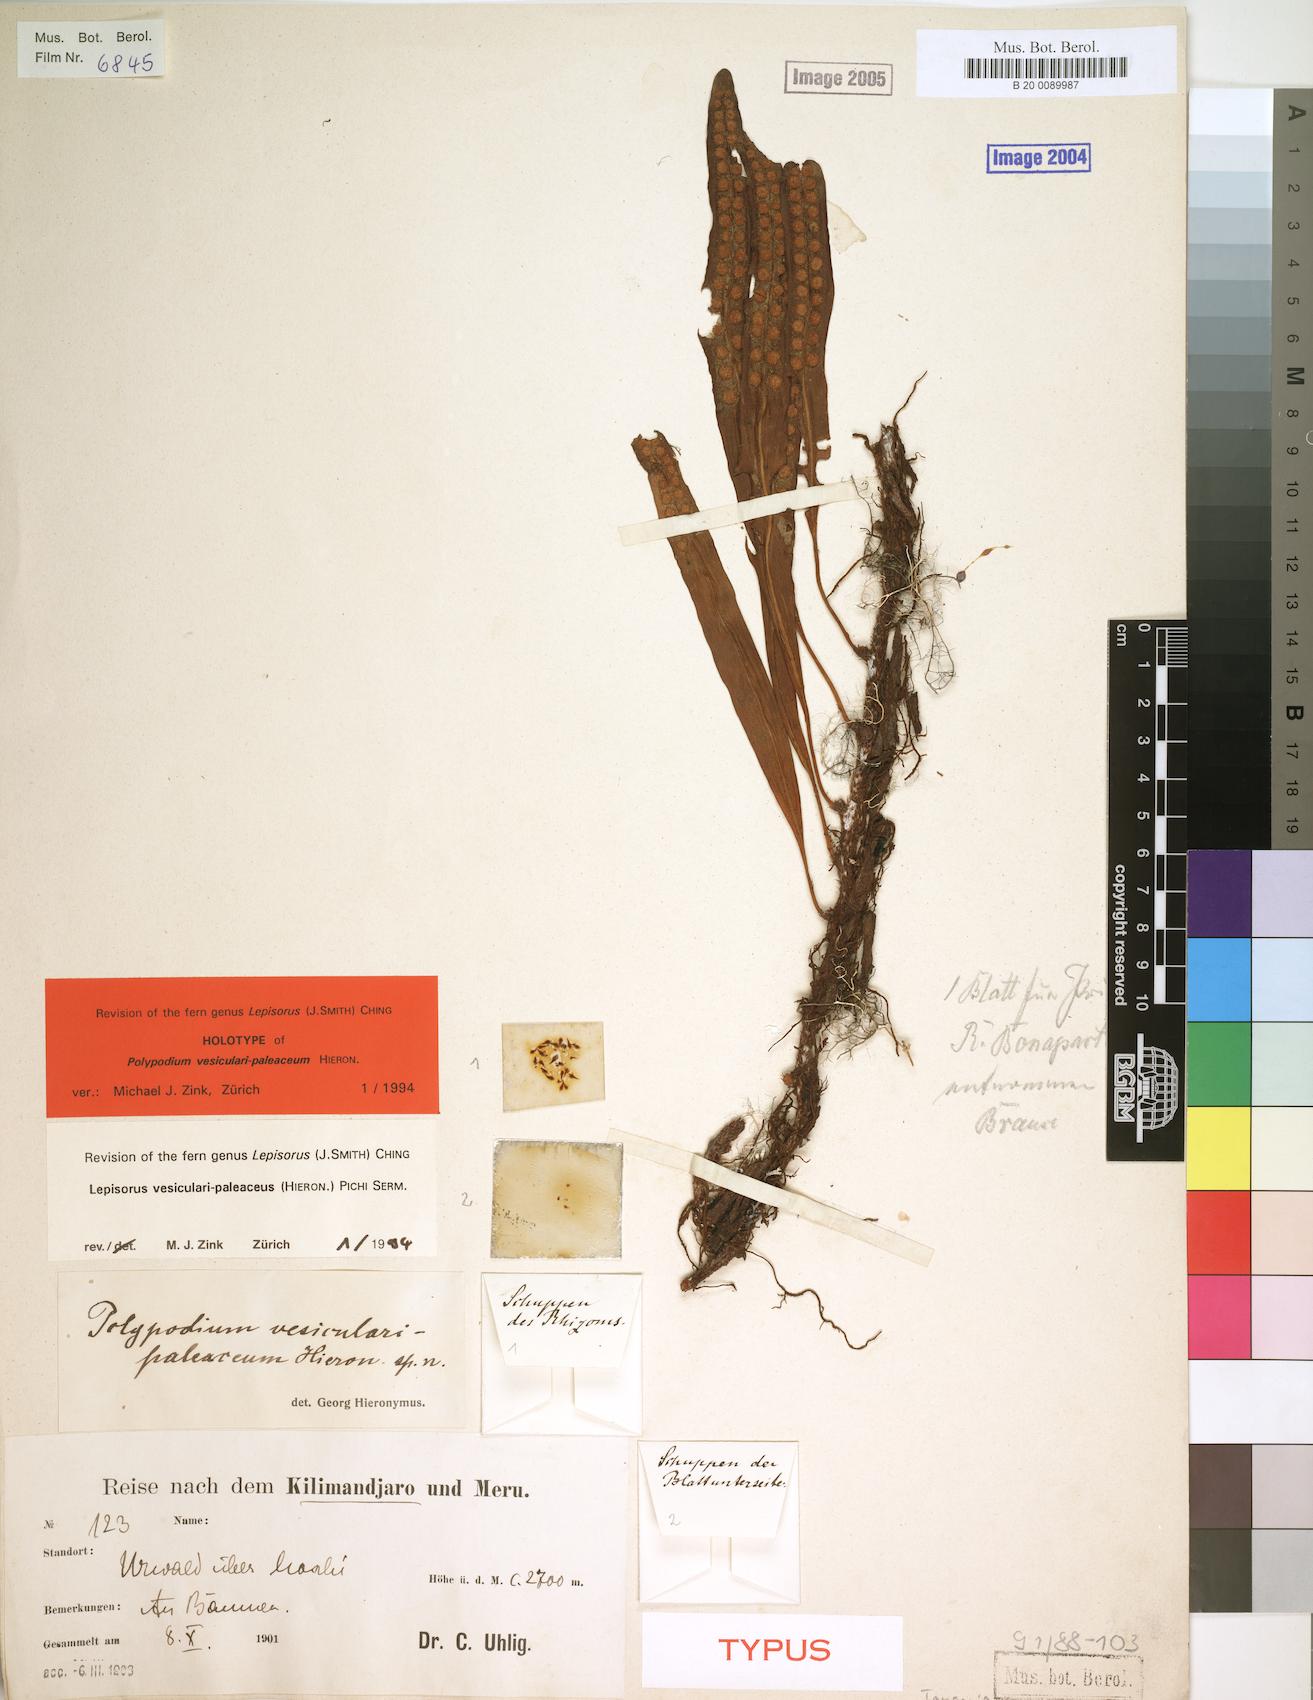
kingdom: Plantae
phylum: Tracheophyta
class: Polypodiopsida
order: Polypodiales
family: Polypodiaceae
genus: Lepisorus
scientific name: Lepisorus excavatus
